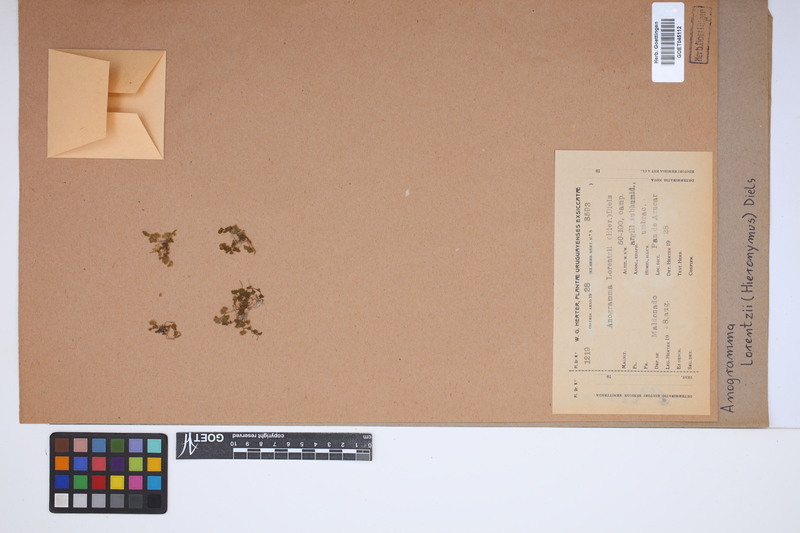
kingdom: Plantae
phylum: Tracheophyta
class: Polypodiopsida
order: Polypodiales
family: Pteridaceae
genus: Anogramma
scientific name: Anogramma lorentzii
